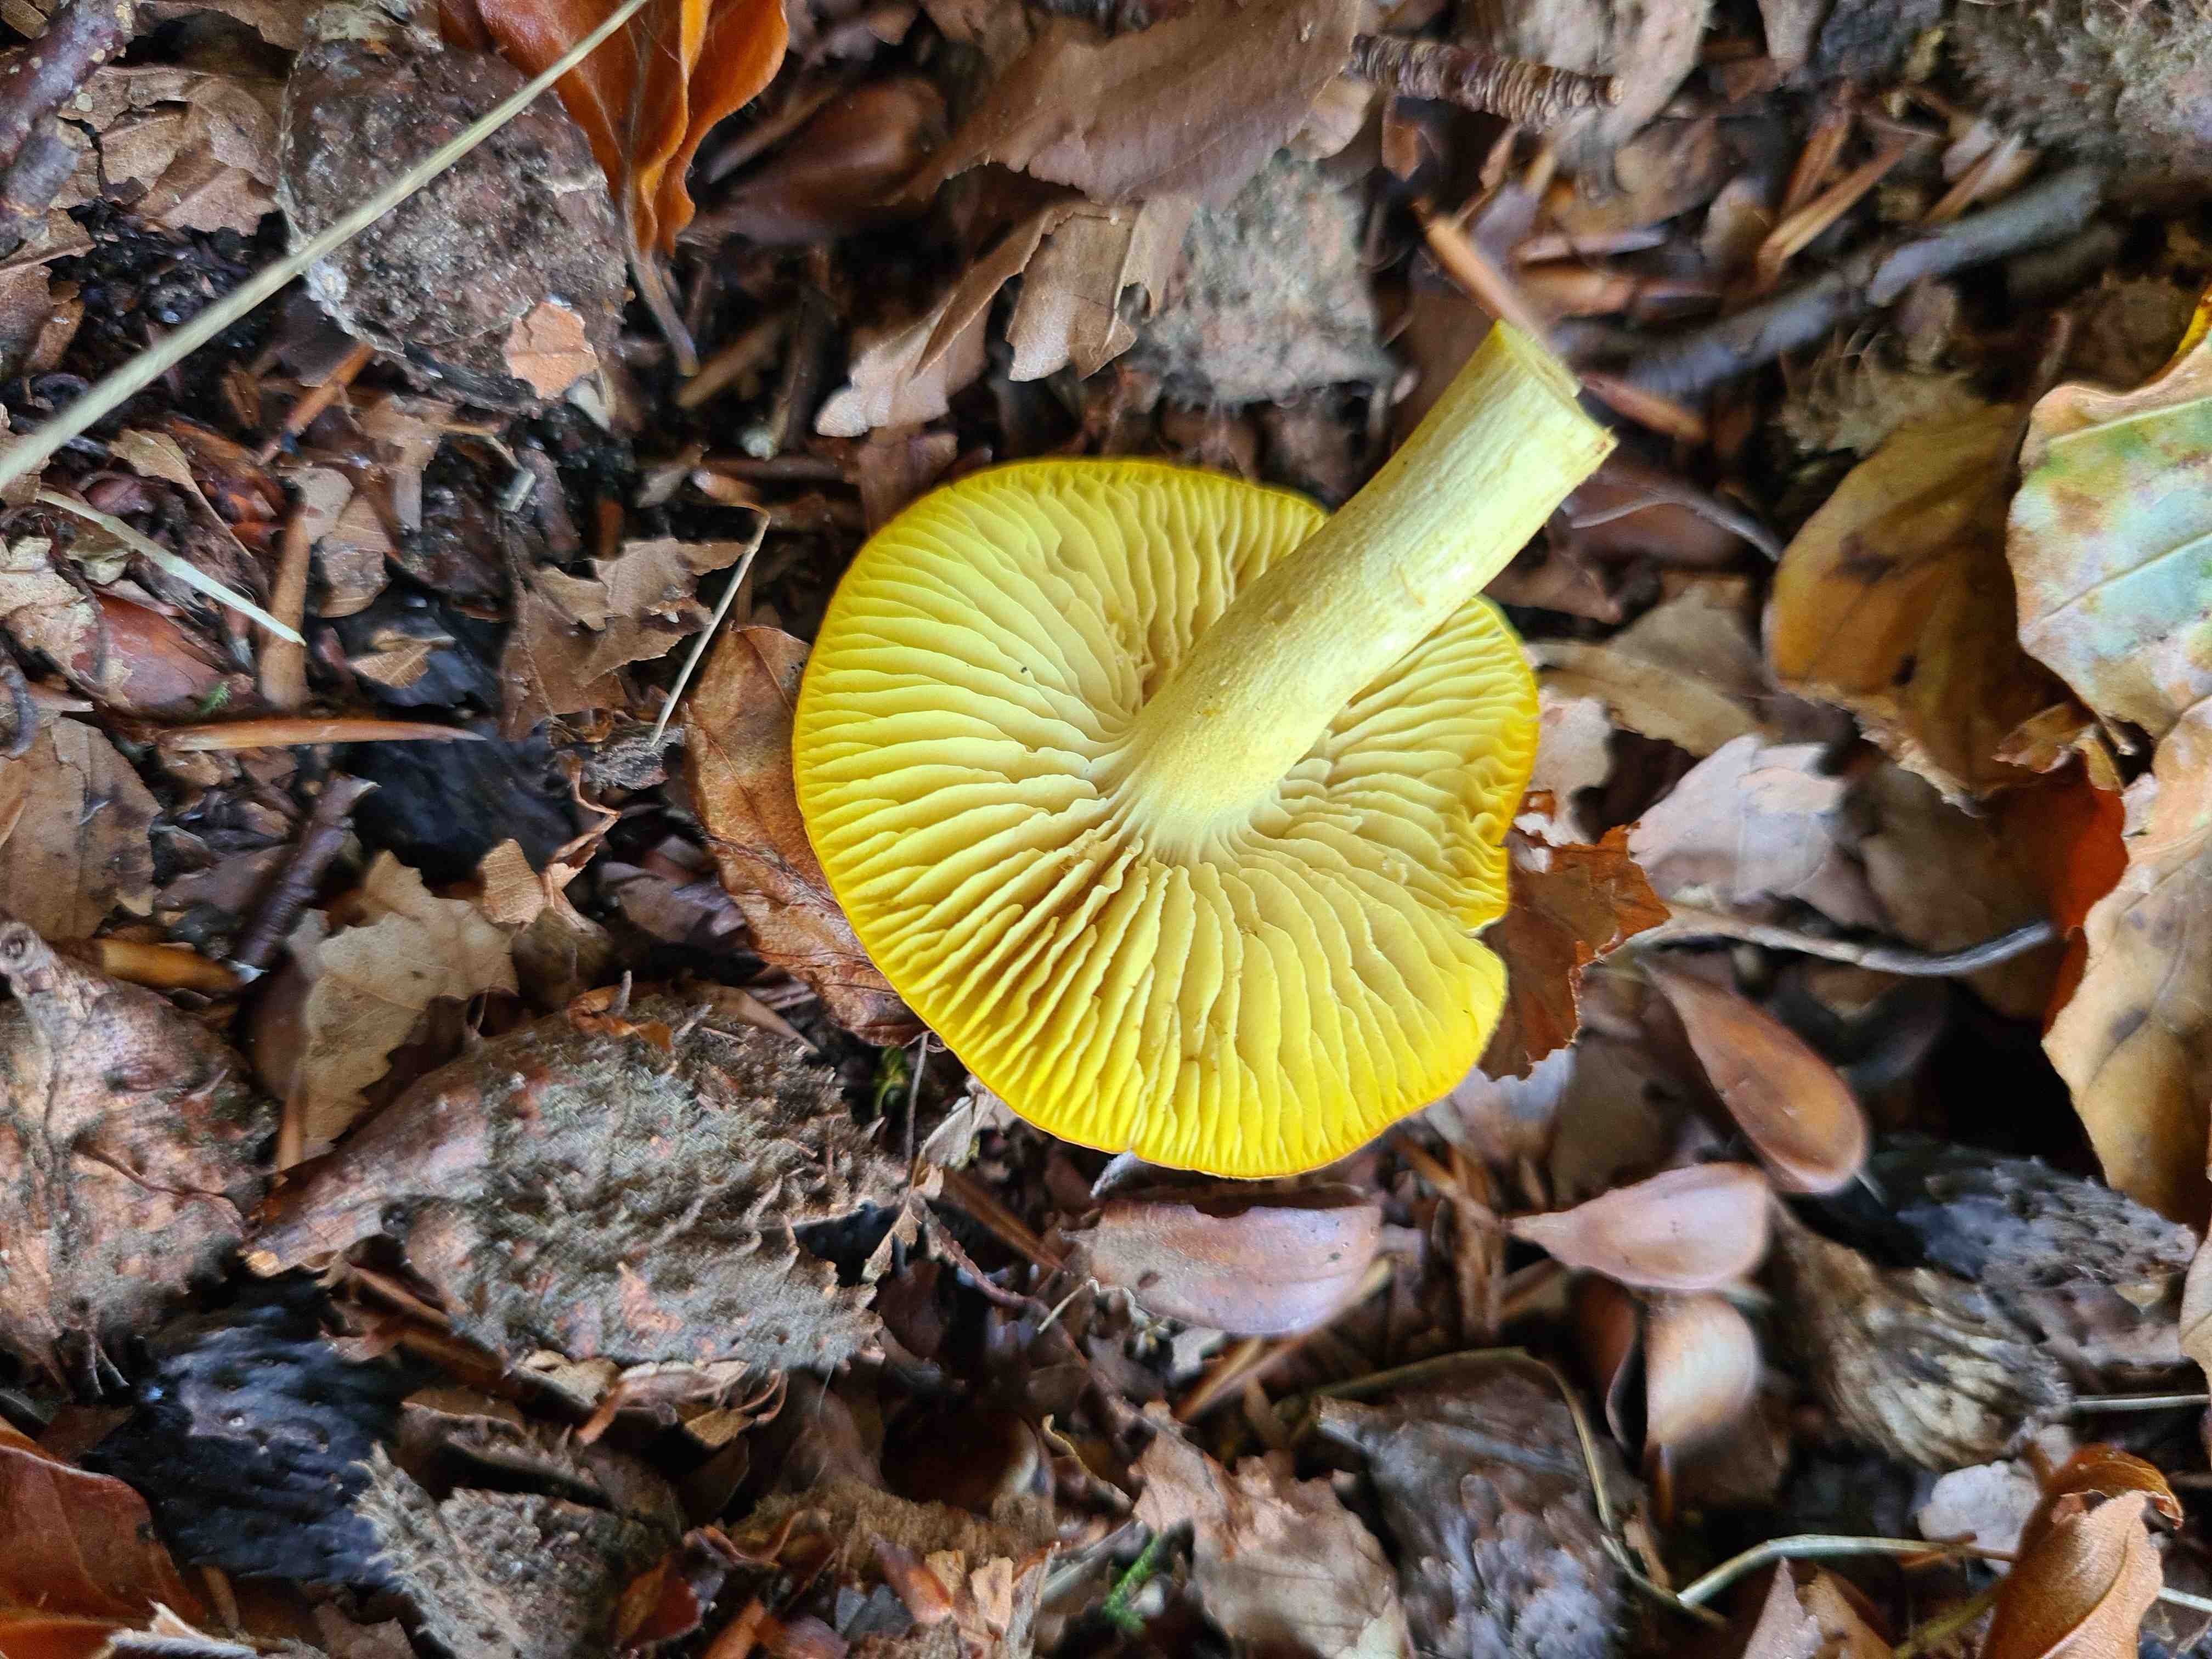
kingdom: Fungi
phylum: Basidiomycota
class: Agaricomycetes
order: Agaricales
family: Tricholomataceae
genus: Tricholoma
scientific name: Tricholoma sulphureum
